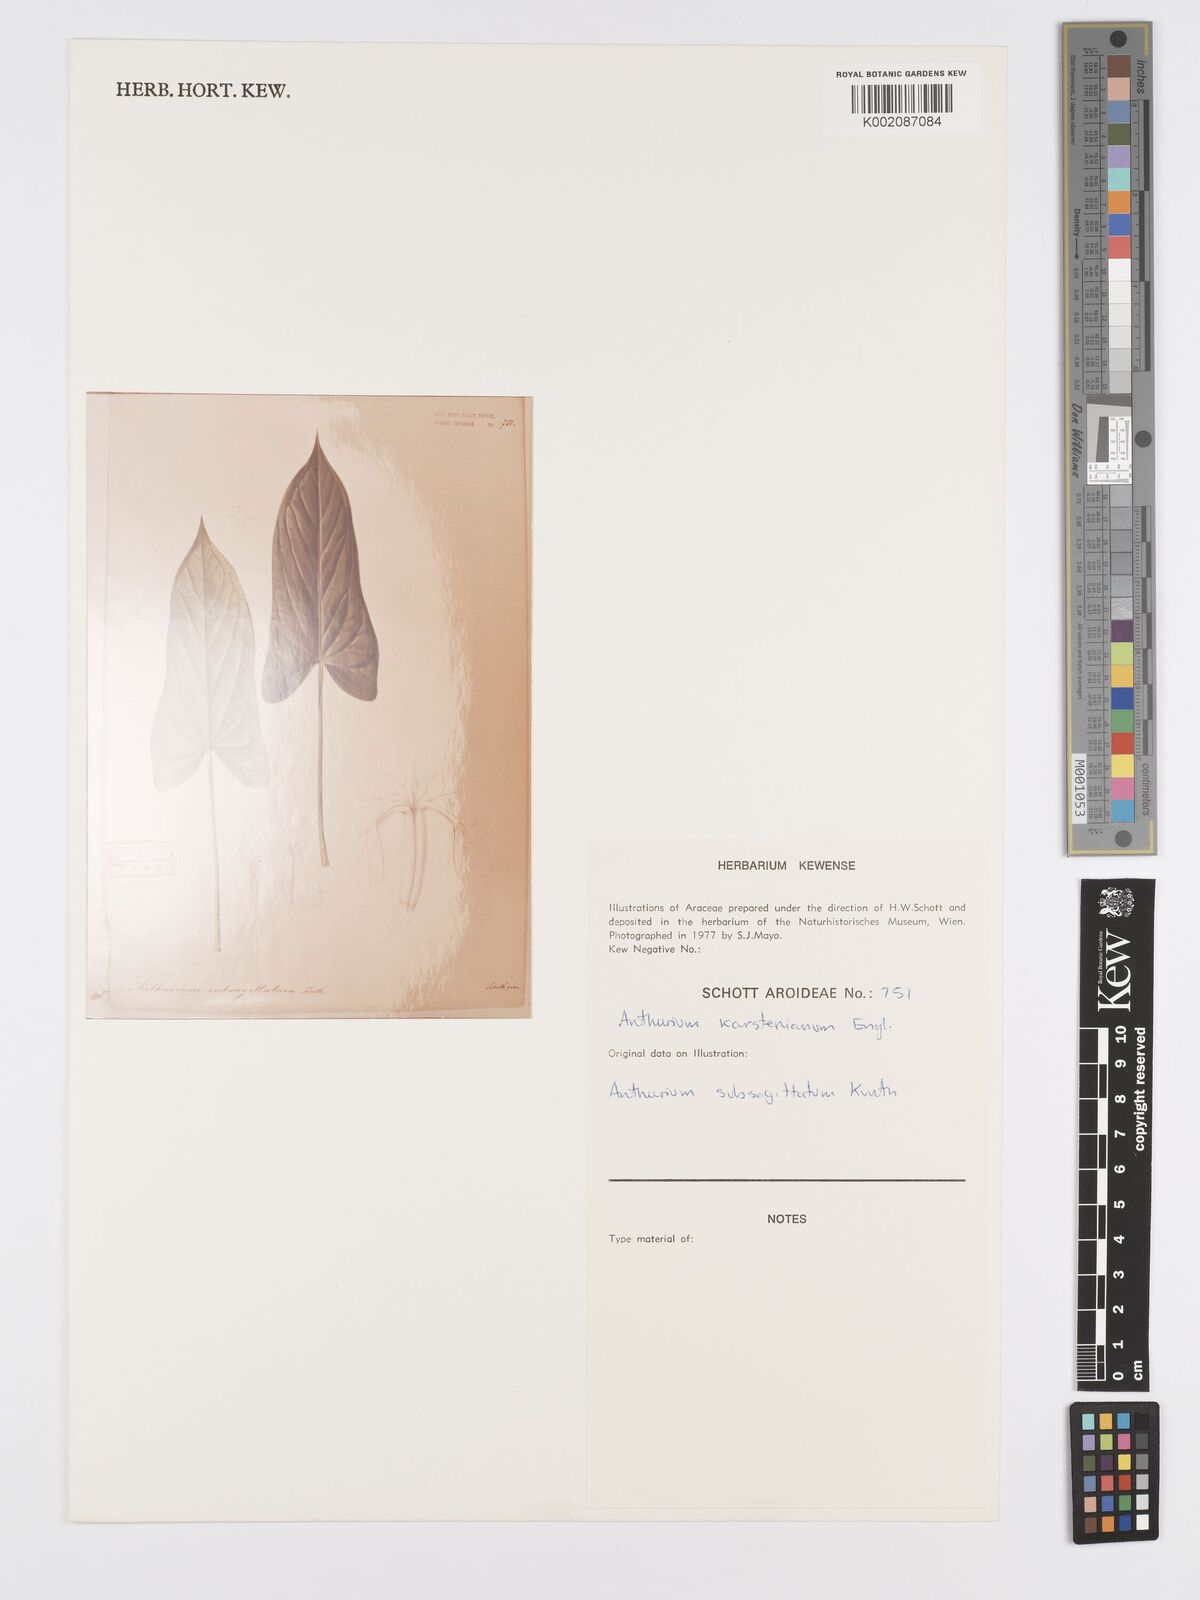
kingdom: Plantae
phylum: Tracheophyta
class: Liliopsida
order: Alismatales
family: Araceae
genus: Anthurium
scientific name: Anthurium subsagittatum
